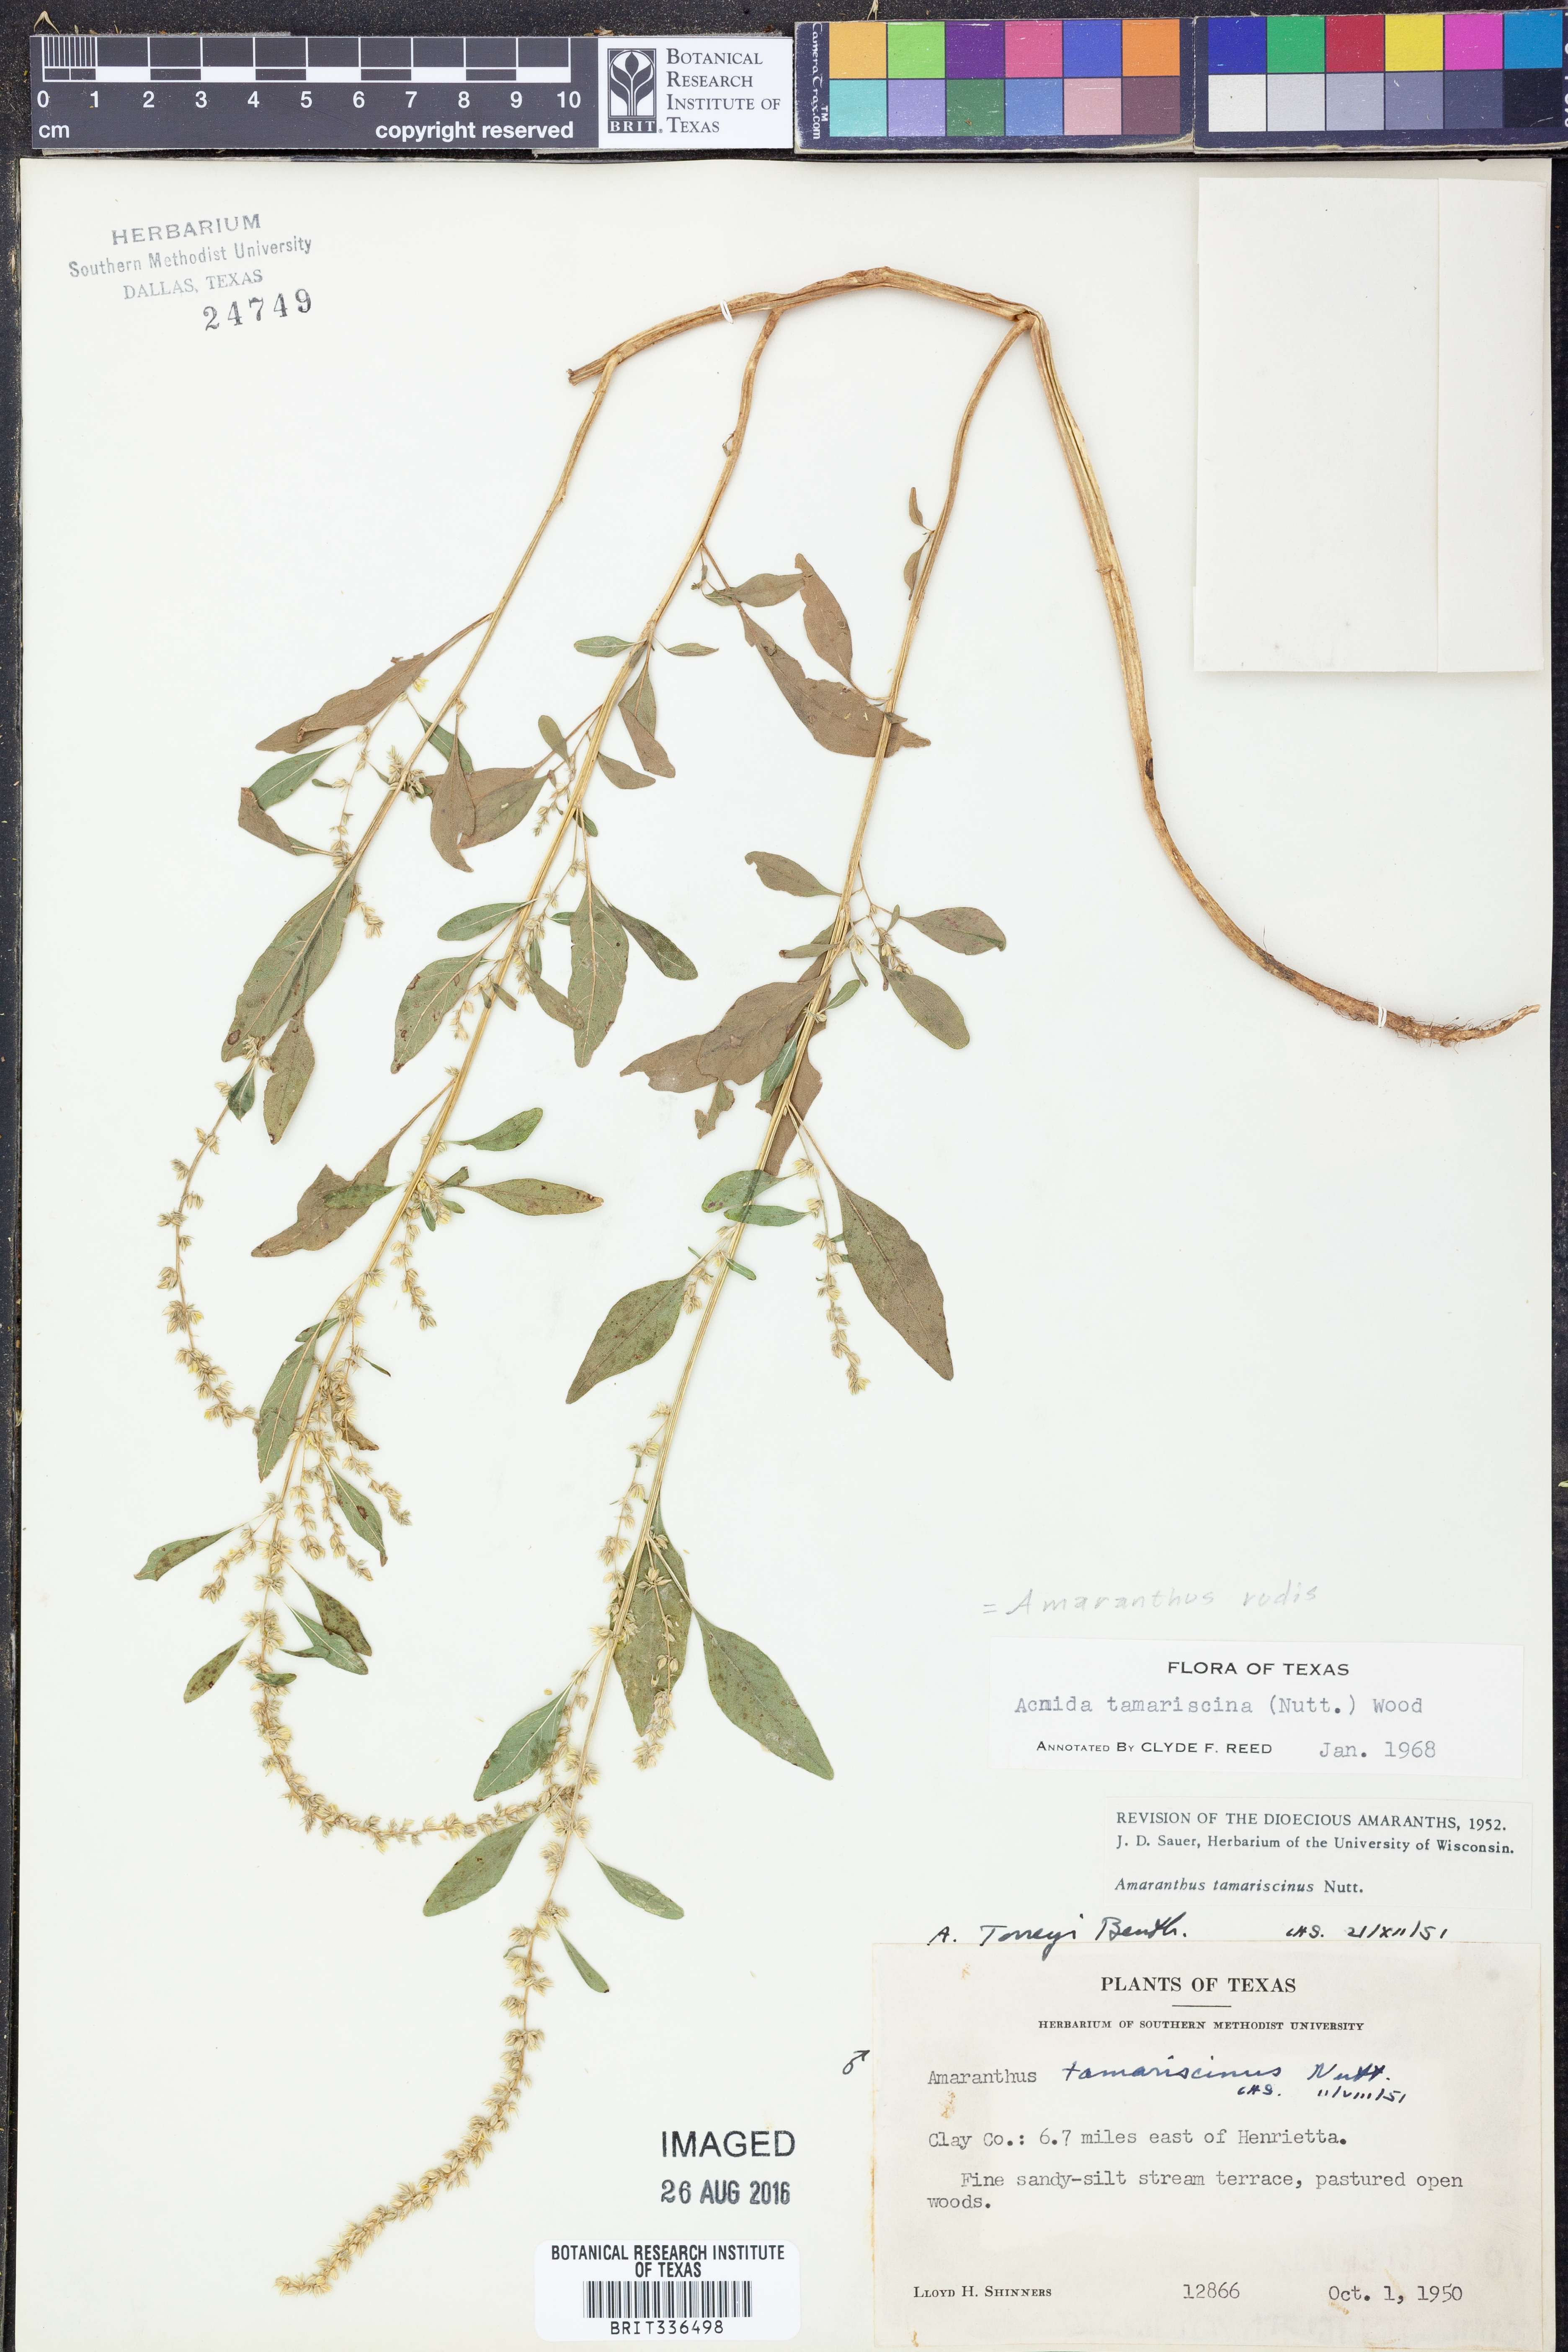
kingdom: Plantae
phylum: Tracheophyta
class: Magnoliopsida
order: Caryophyllales
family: Amaranthaceae
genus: Amaranthus
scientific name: Amaranthus tuberculatus
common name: Rough-fruit amaranth
